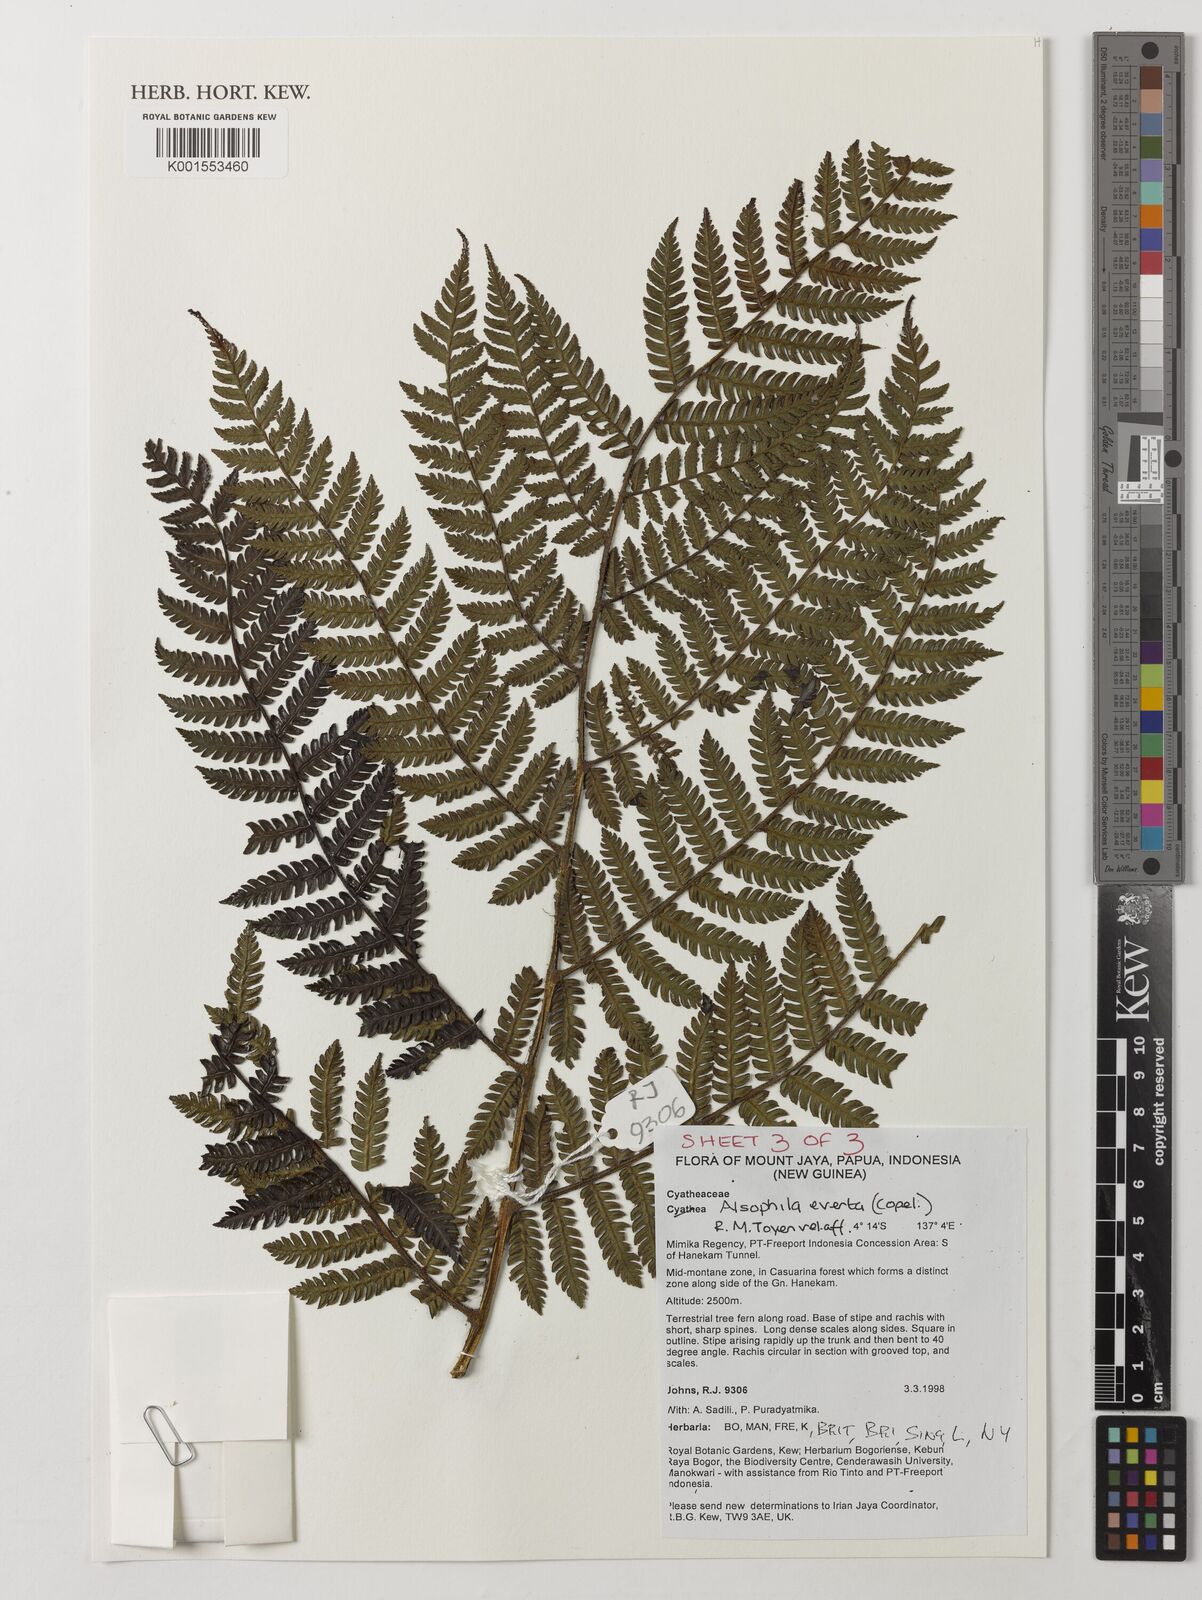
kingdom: Plantae
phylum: Tracheophyta
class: Polypodiopsida
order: Cyatheales
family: Cyatheaceae
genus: Alsophila
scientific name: Alsophila everta
